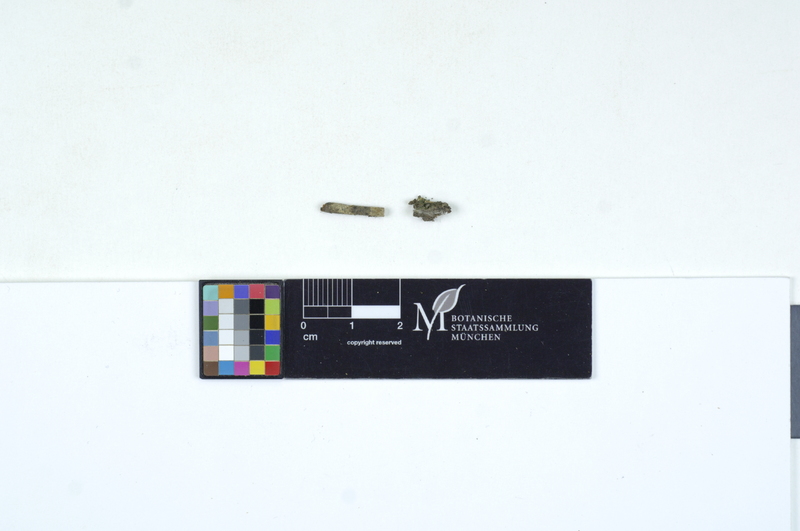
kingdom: Fungi
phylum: Basidiomycota
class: Agaricomycetes
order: Cantharellales
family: Ceratobasidiaceae
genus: Rhizoctonia
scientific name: Rhizoctonia terrigena
